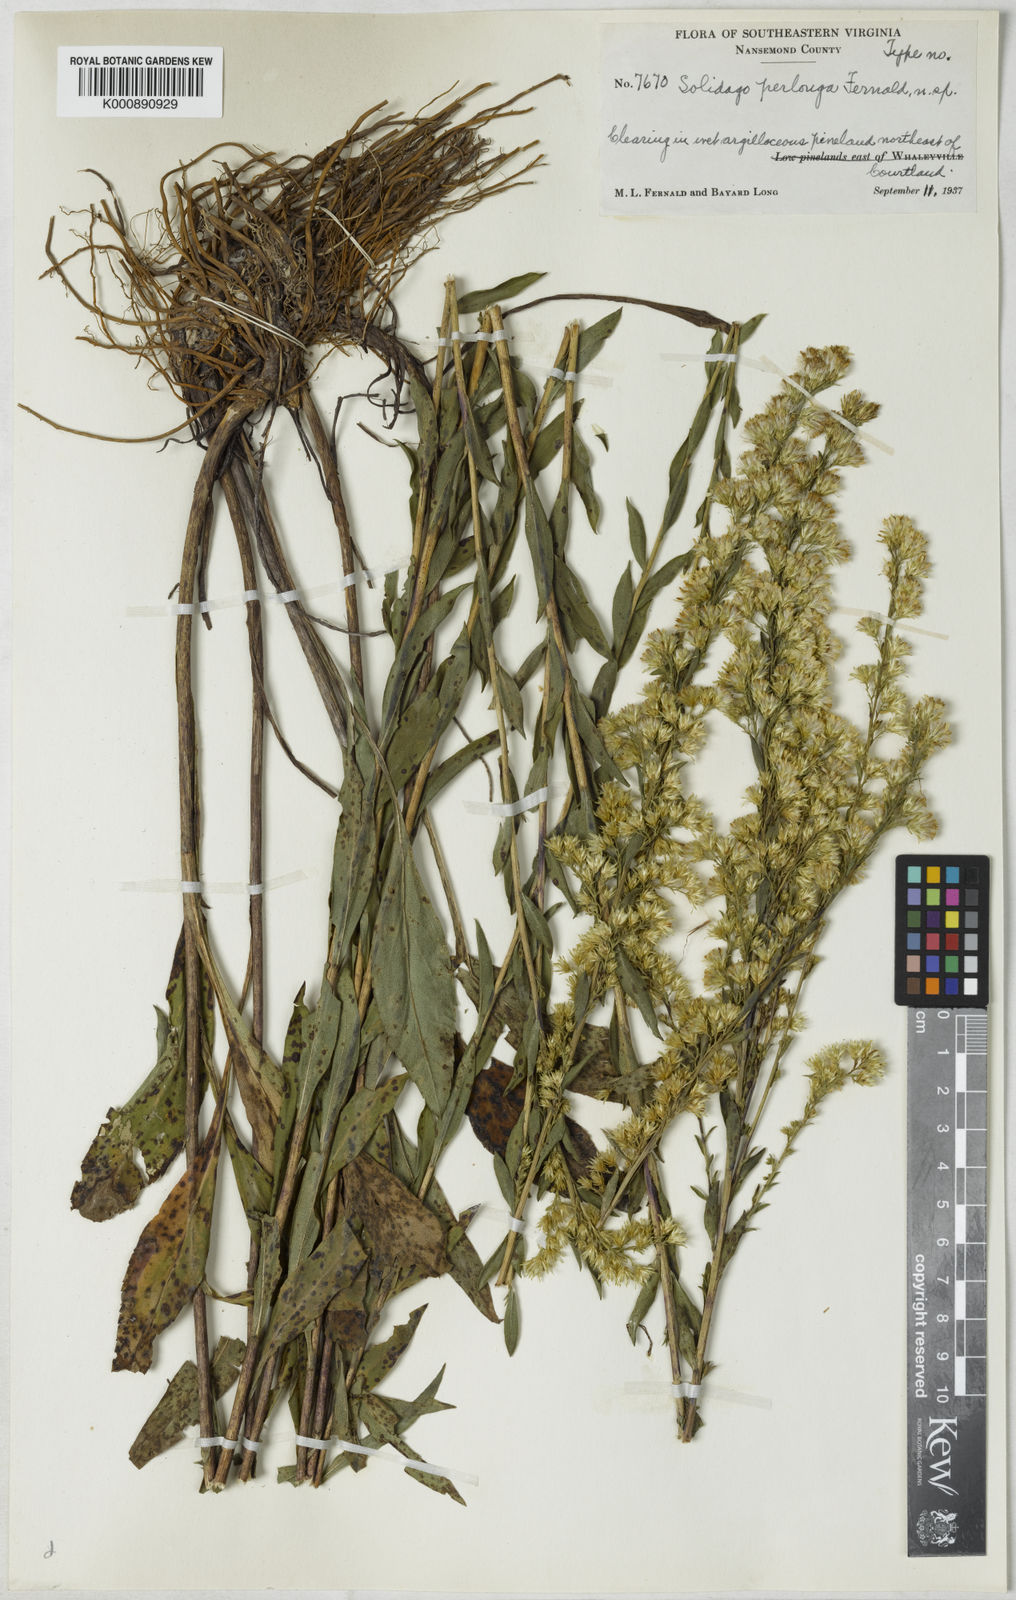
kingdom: Plantae
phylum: Tracheophyta
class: Magnoliopsida
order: Asterales
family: Asteraceae
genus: Solidago
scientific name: Solidago stricta
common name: Pine barren bog goldenrod
